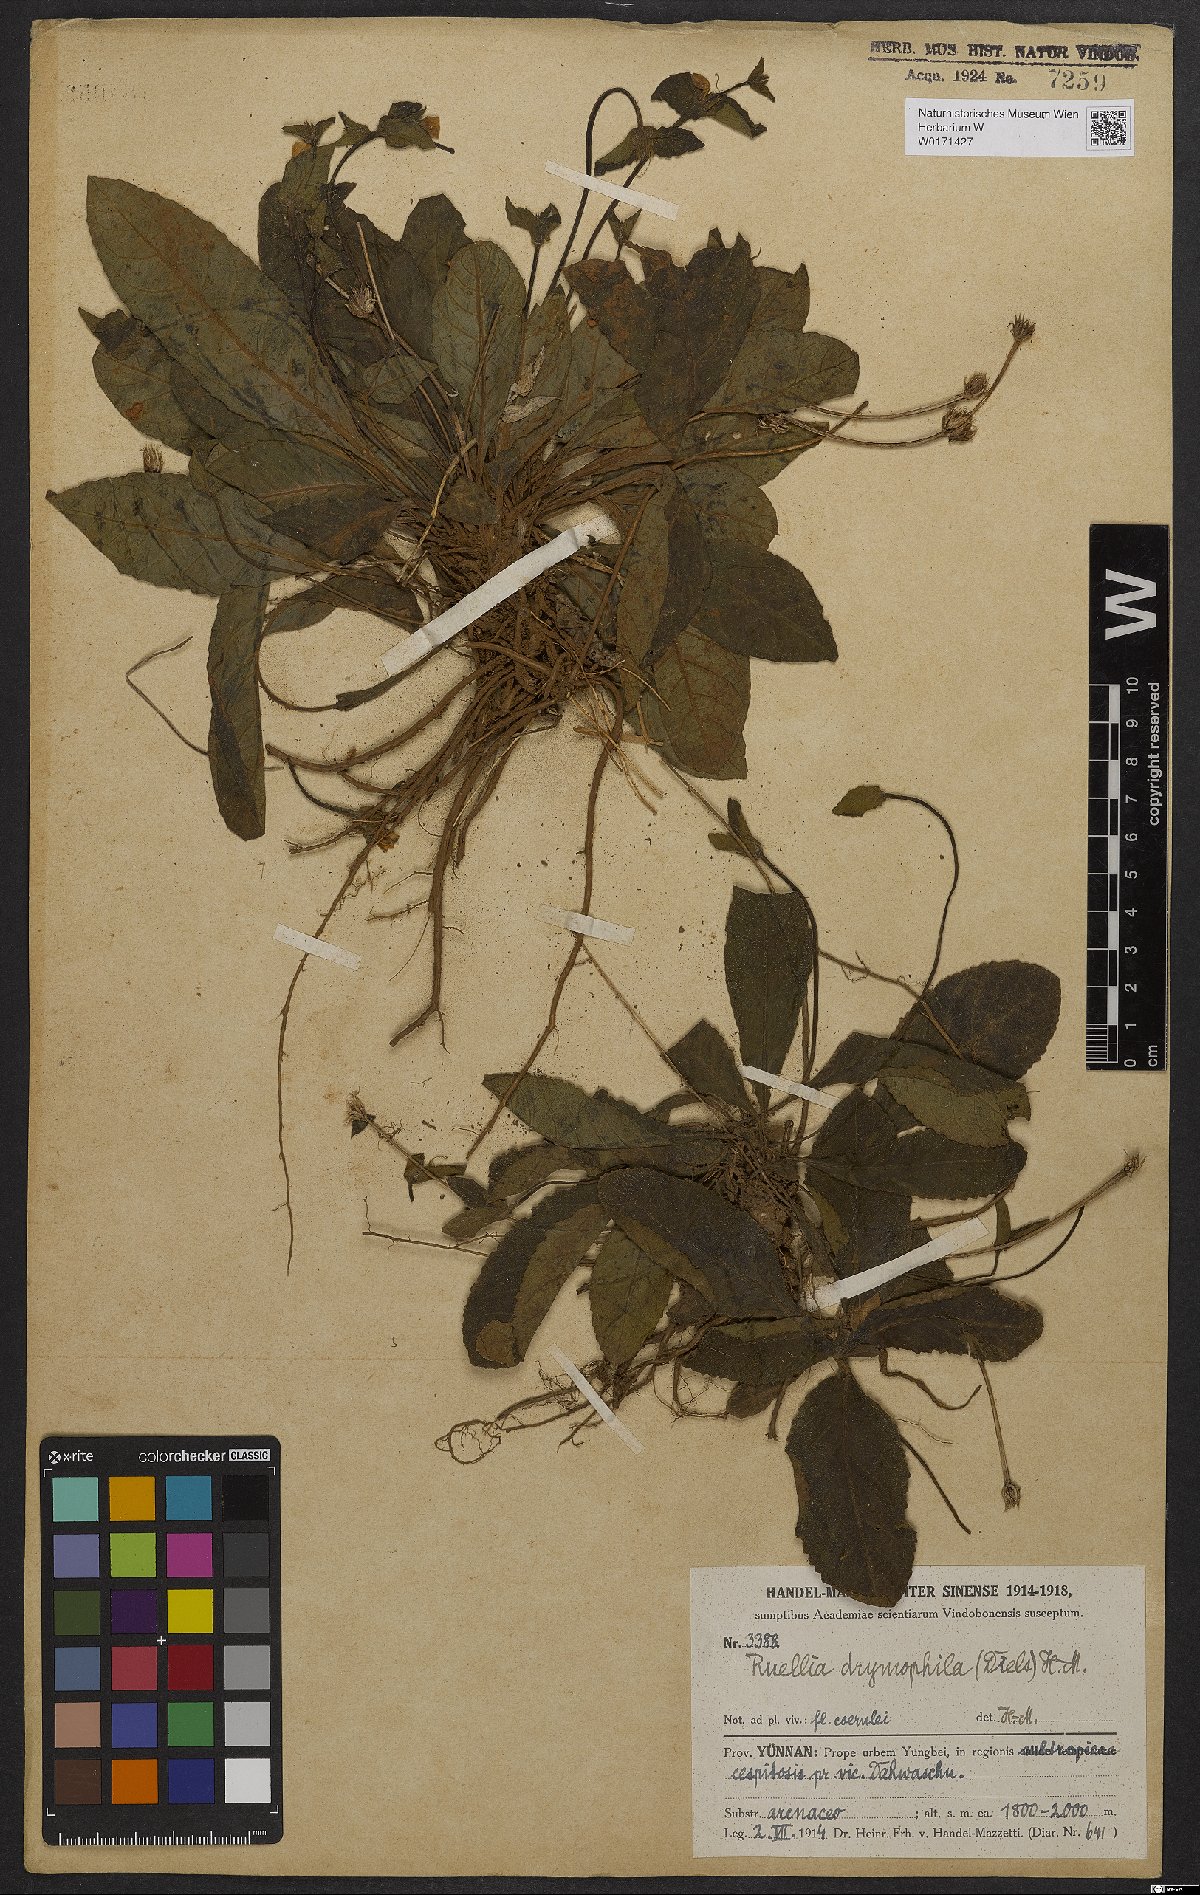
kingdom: Plantae
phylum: Tracheophyta
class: Magnoliopsida
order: Lamiales
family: Acanthaceae
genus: Pararuellia
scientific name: Pararuellia delavayana
